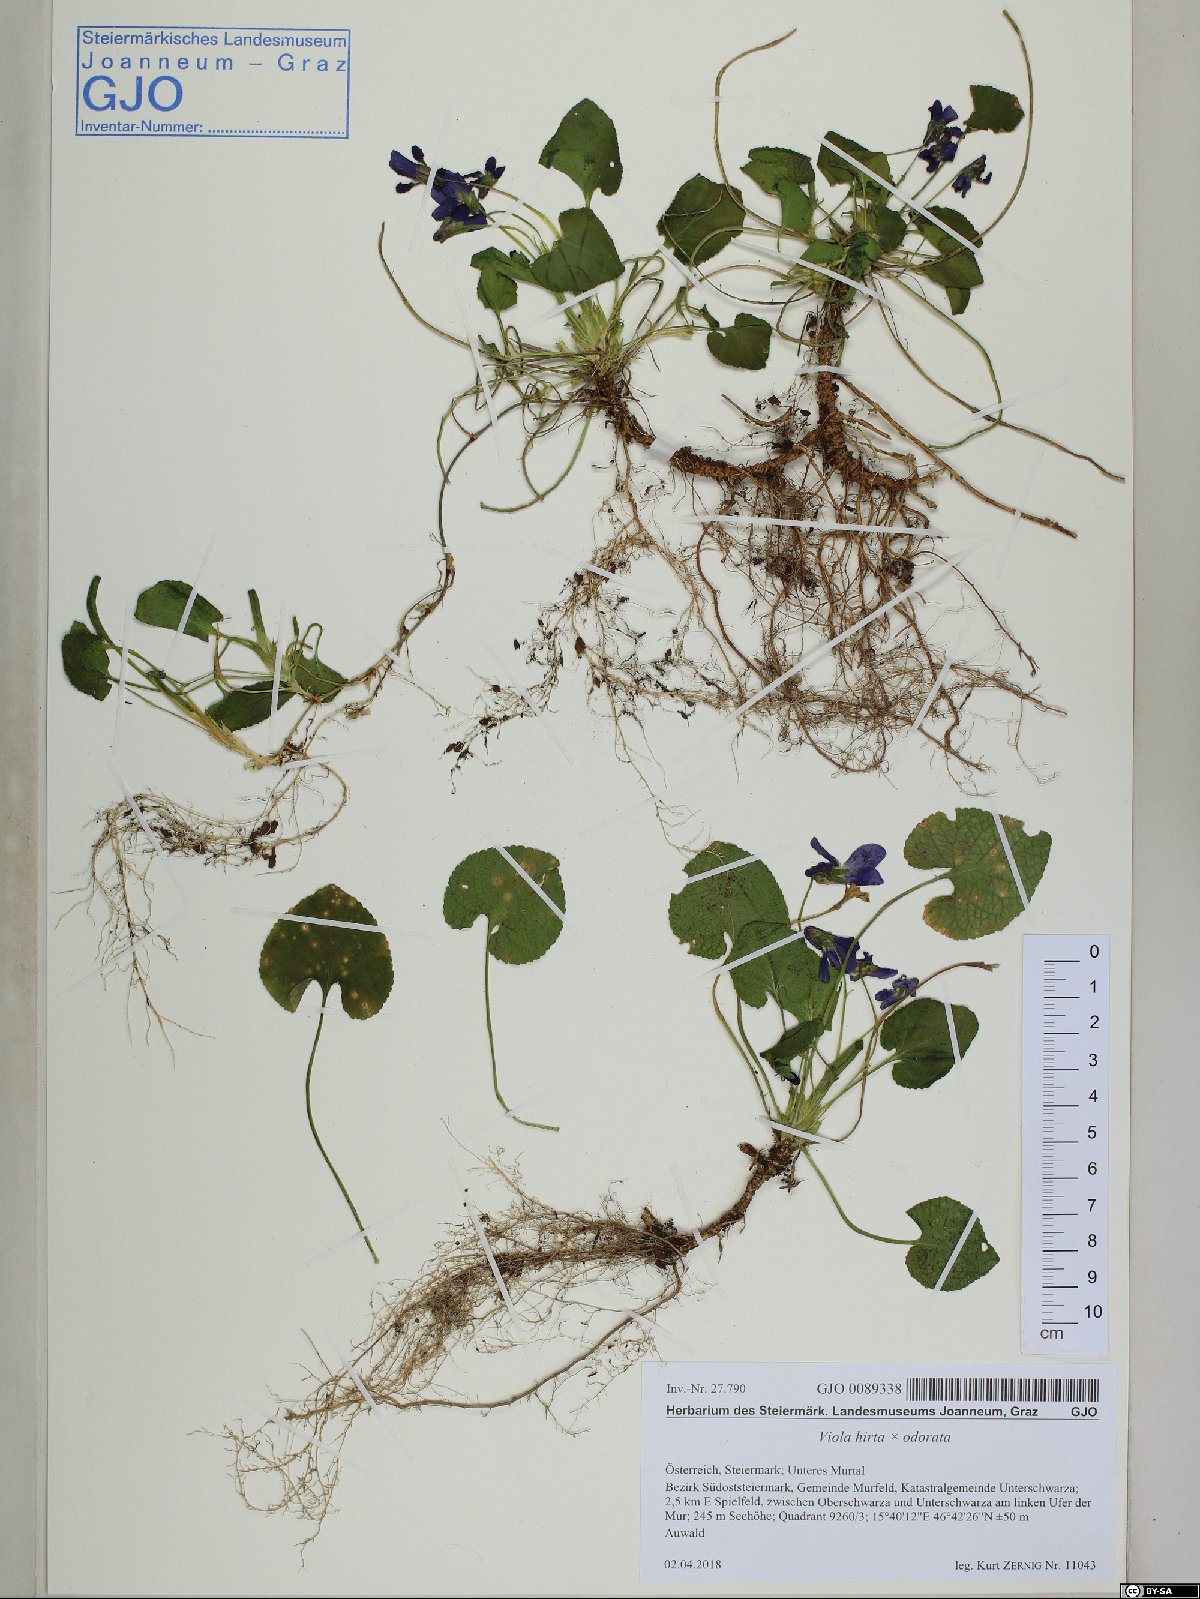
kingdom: Plantae
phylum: Tracheophyta
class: Magnoliopsida
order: Malpighiales
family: Violaceae
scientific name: Violaceae
